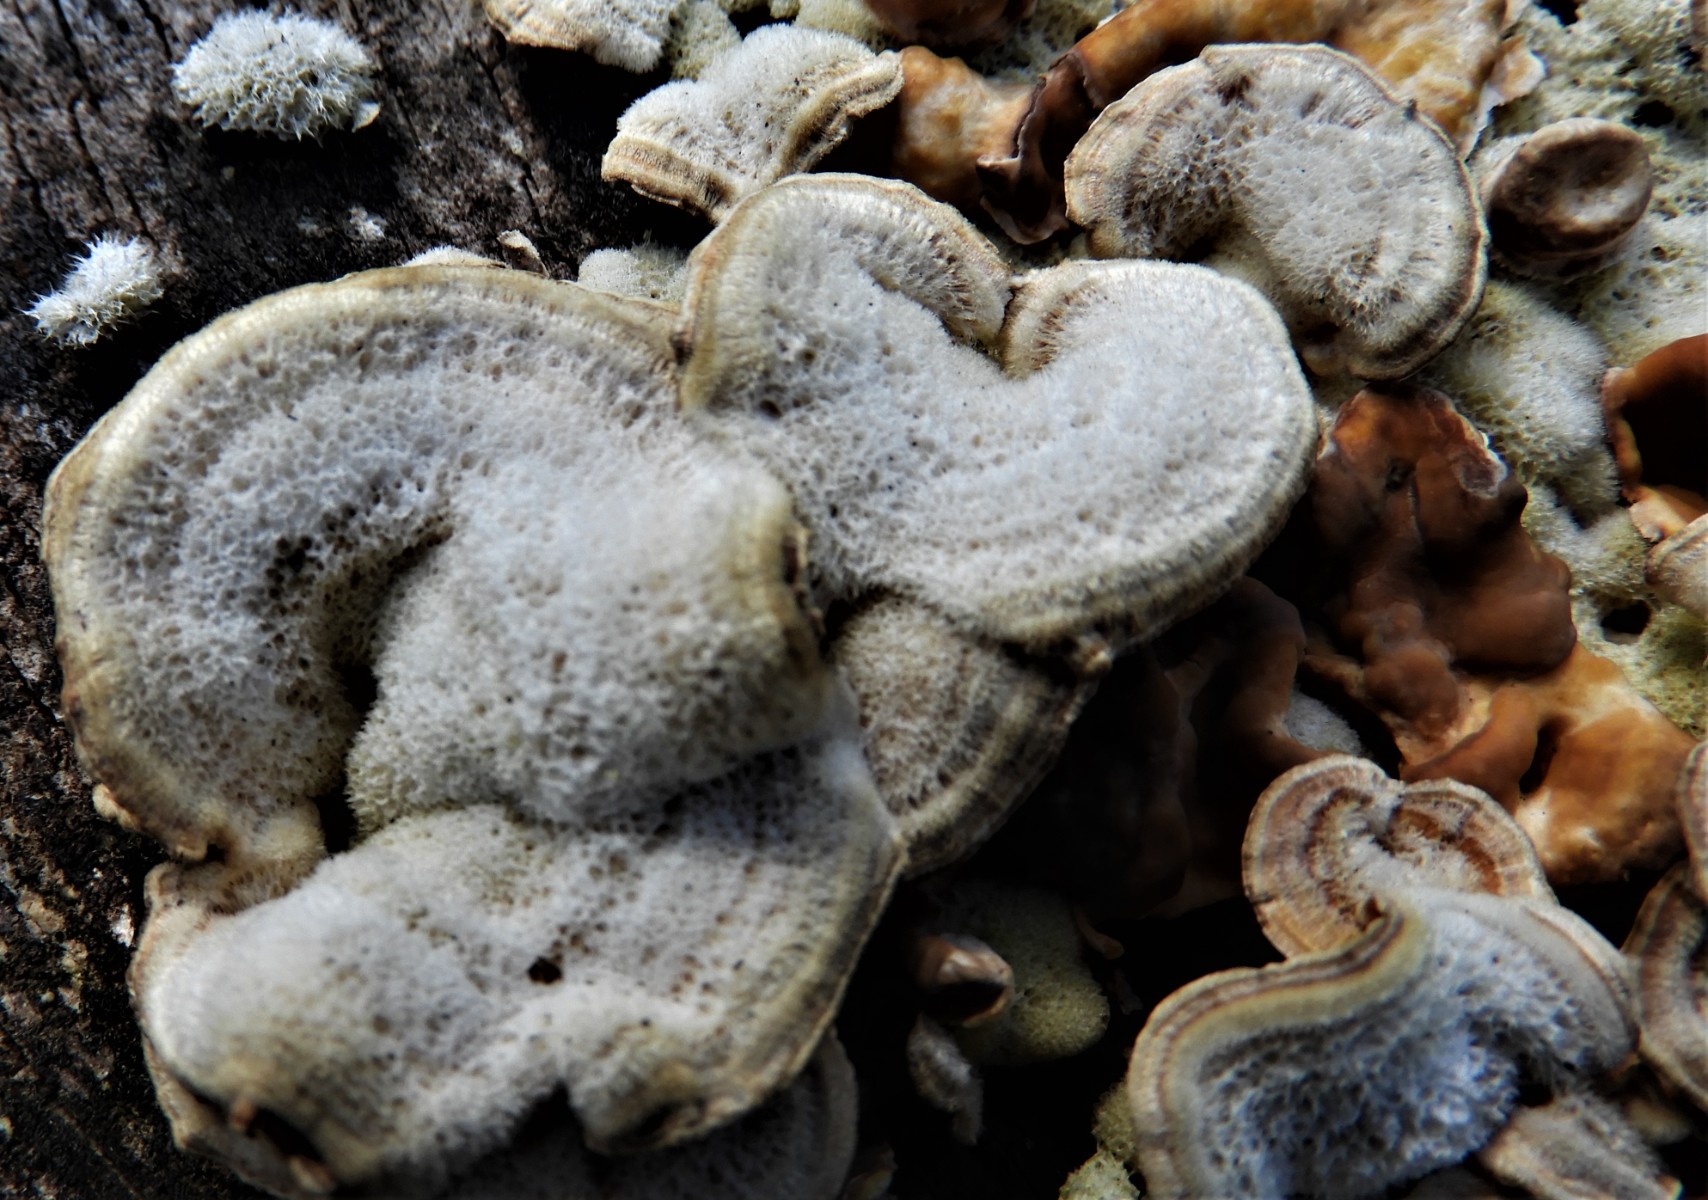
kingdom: Fungi
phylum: Basidiomycota
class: Agaricomycetes
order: Russulales
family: Stereaceae
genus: Stereum
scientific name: Stereum hirsutum
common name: håret lædersvamp
